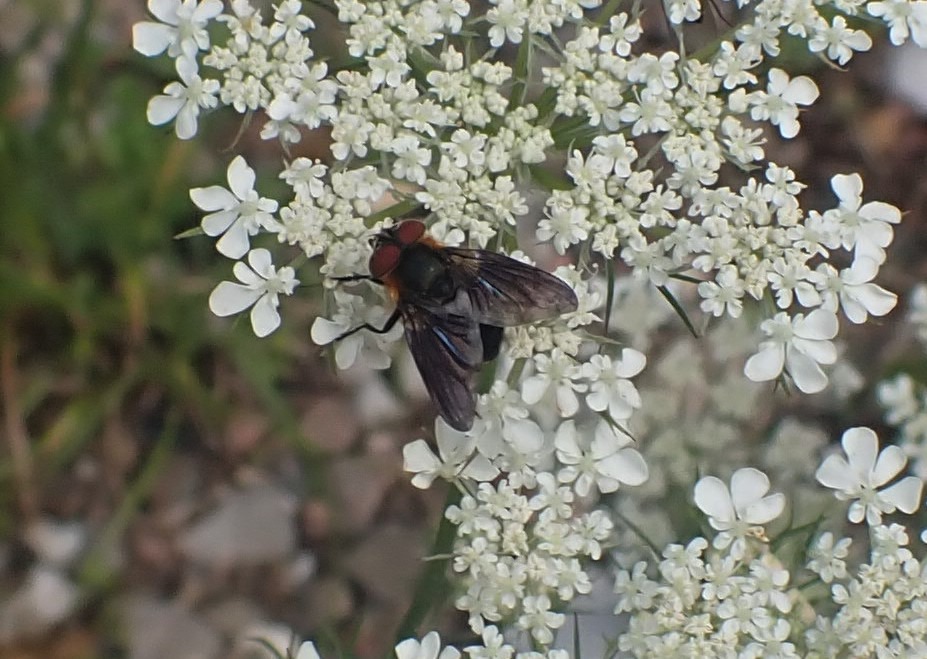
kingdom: Animalia
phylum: Arthropoda
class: Insecta
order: Diptera
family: Tachinidae
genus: Phasia
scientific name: Phasia hemiptera
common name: Blåvinget pragtsnylteflue
